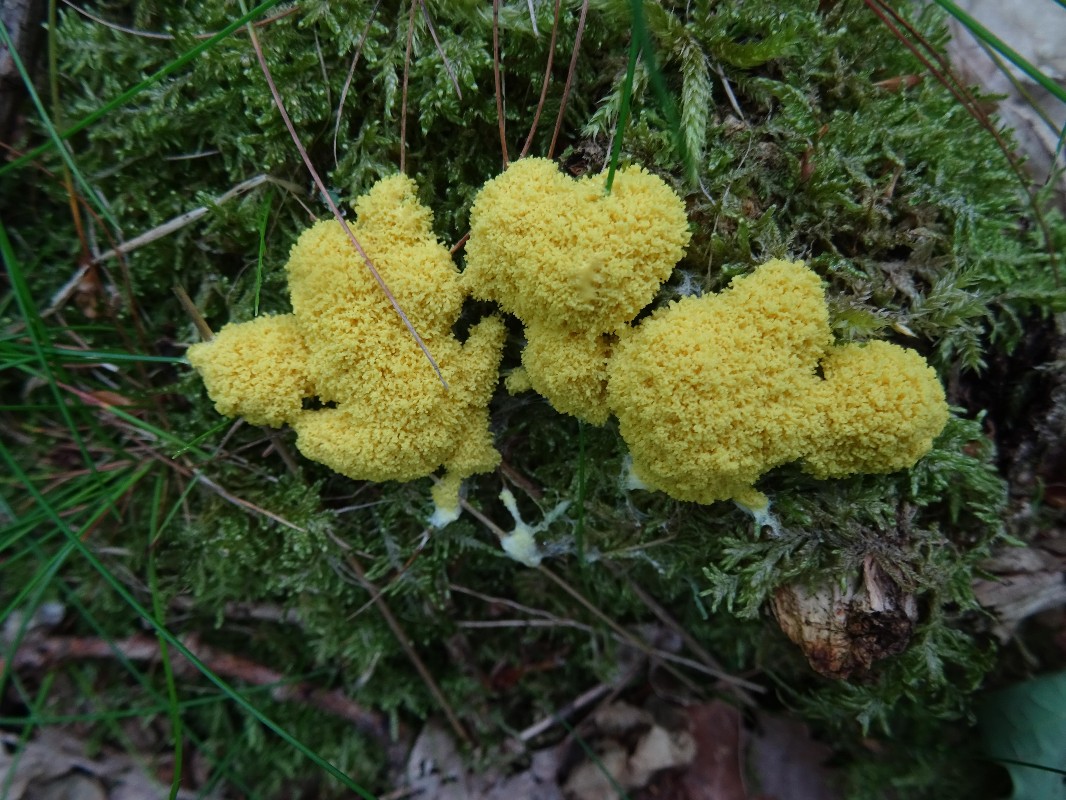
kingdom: Protozoa
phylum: Mycetozoa
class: Myxomycetes
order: Physarales
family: Physaraceae
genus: Fuligo
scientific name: Fuligo septica
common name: gul troldsmør
